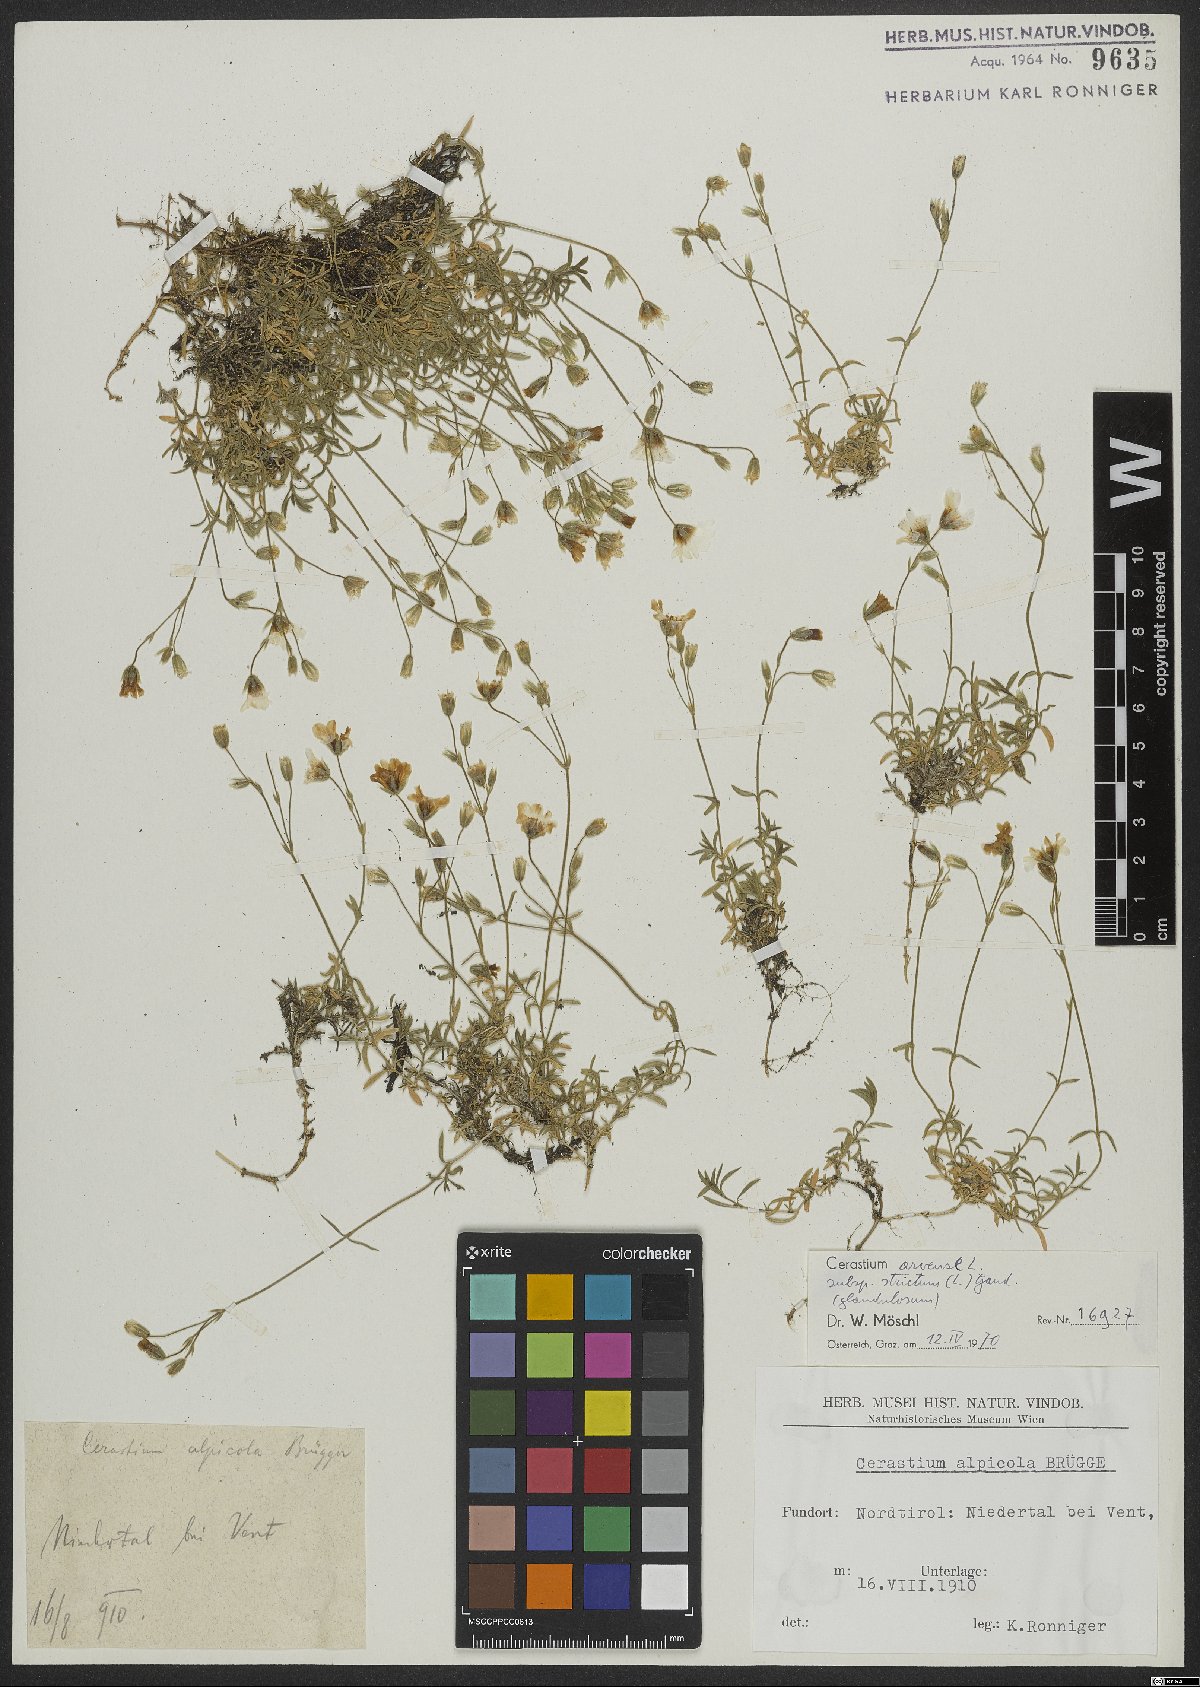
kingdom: Plantae
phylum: Tracheophyta
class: Magnoliopsida
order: Caryophyllales
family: Caryophyllaceae
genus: Cerastium
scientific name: Cerastium elongatum
